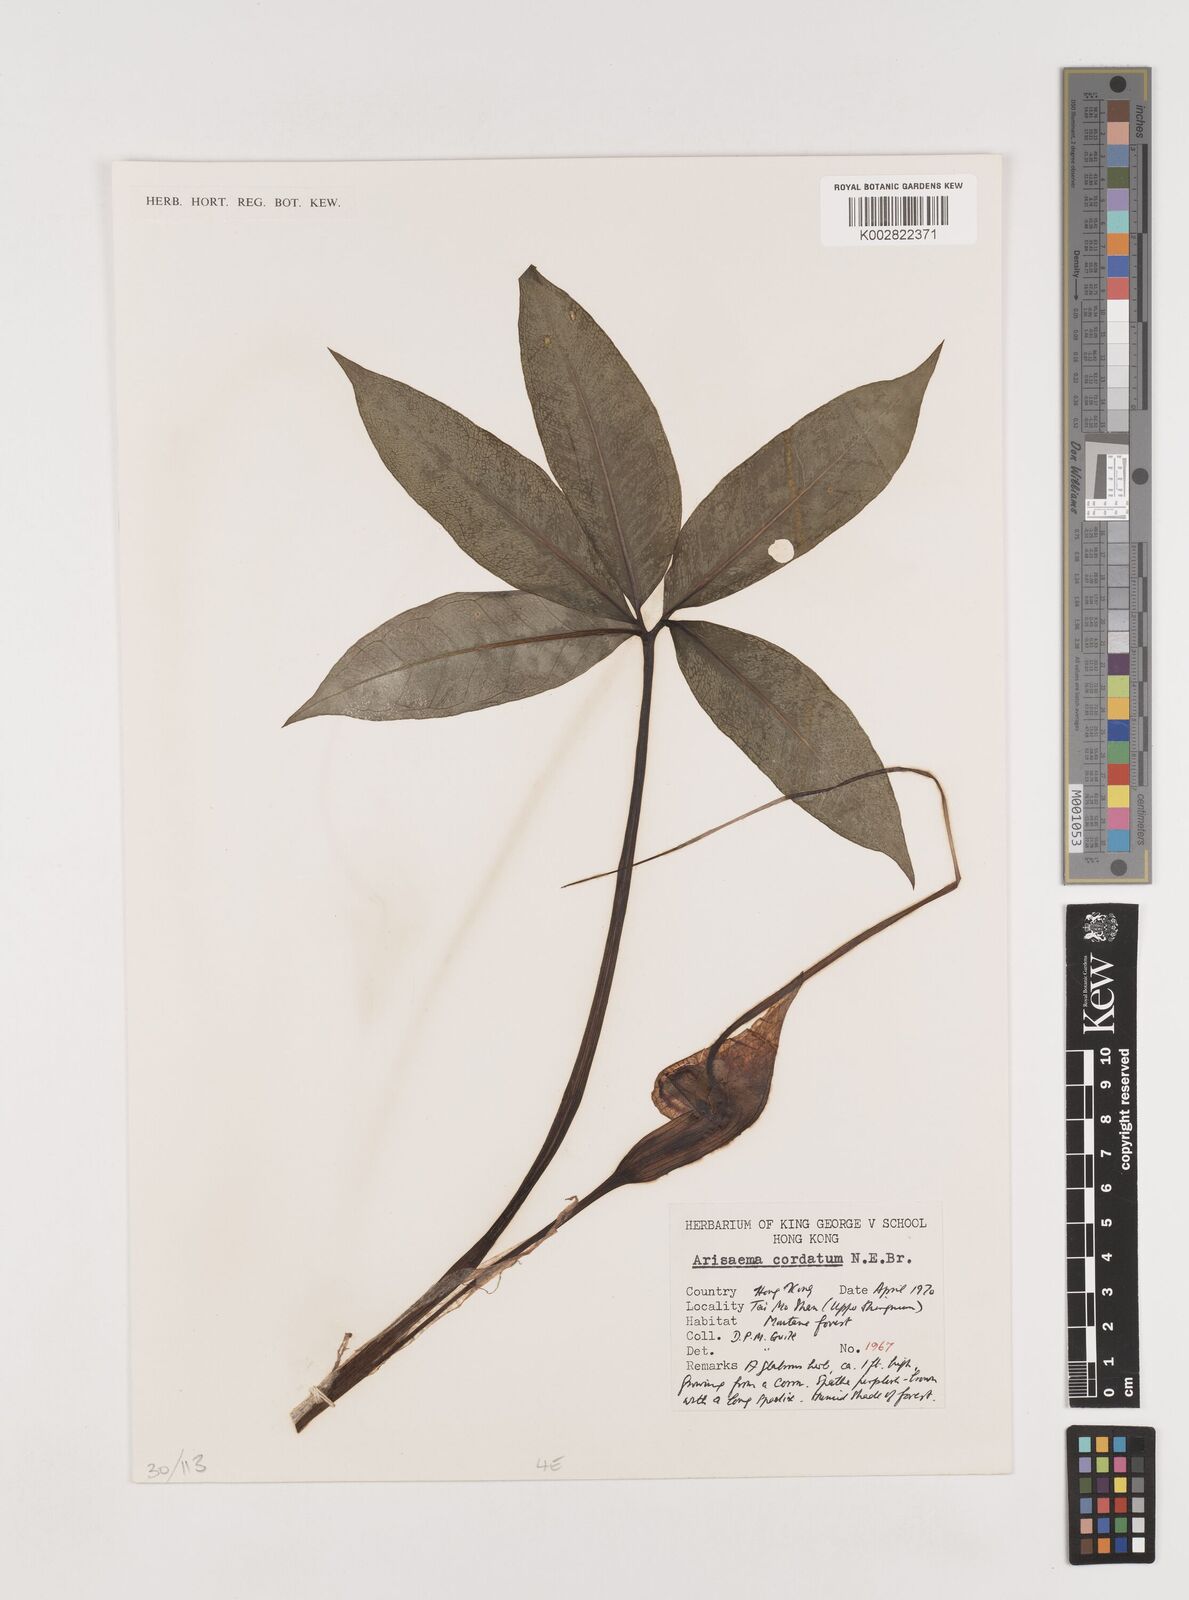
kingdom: Plantae
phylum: Tracheophyta
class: Liliopsida
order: Alismatales
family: Araceae
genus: Arisaema
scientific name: Arisaema cordatum
